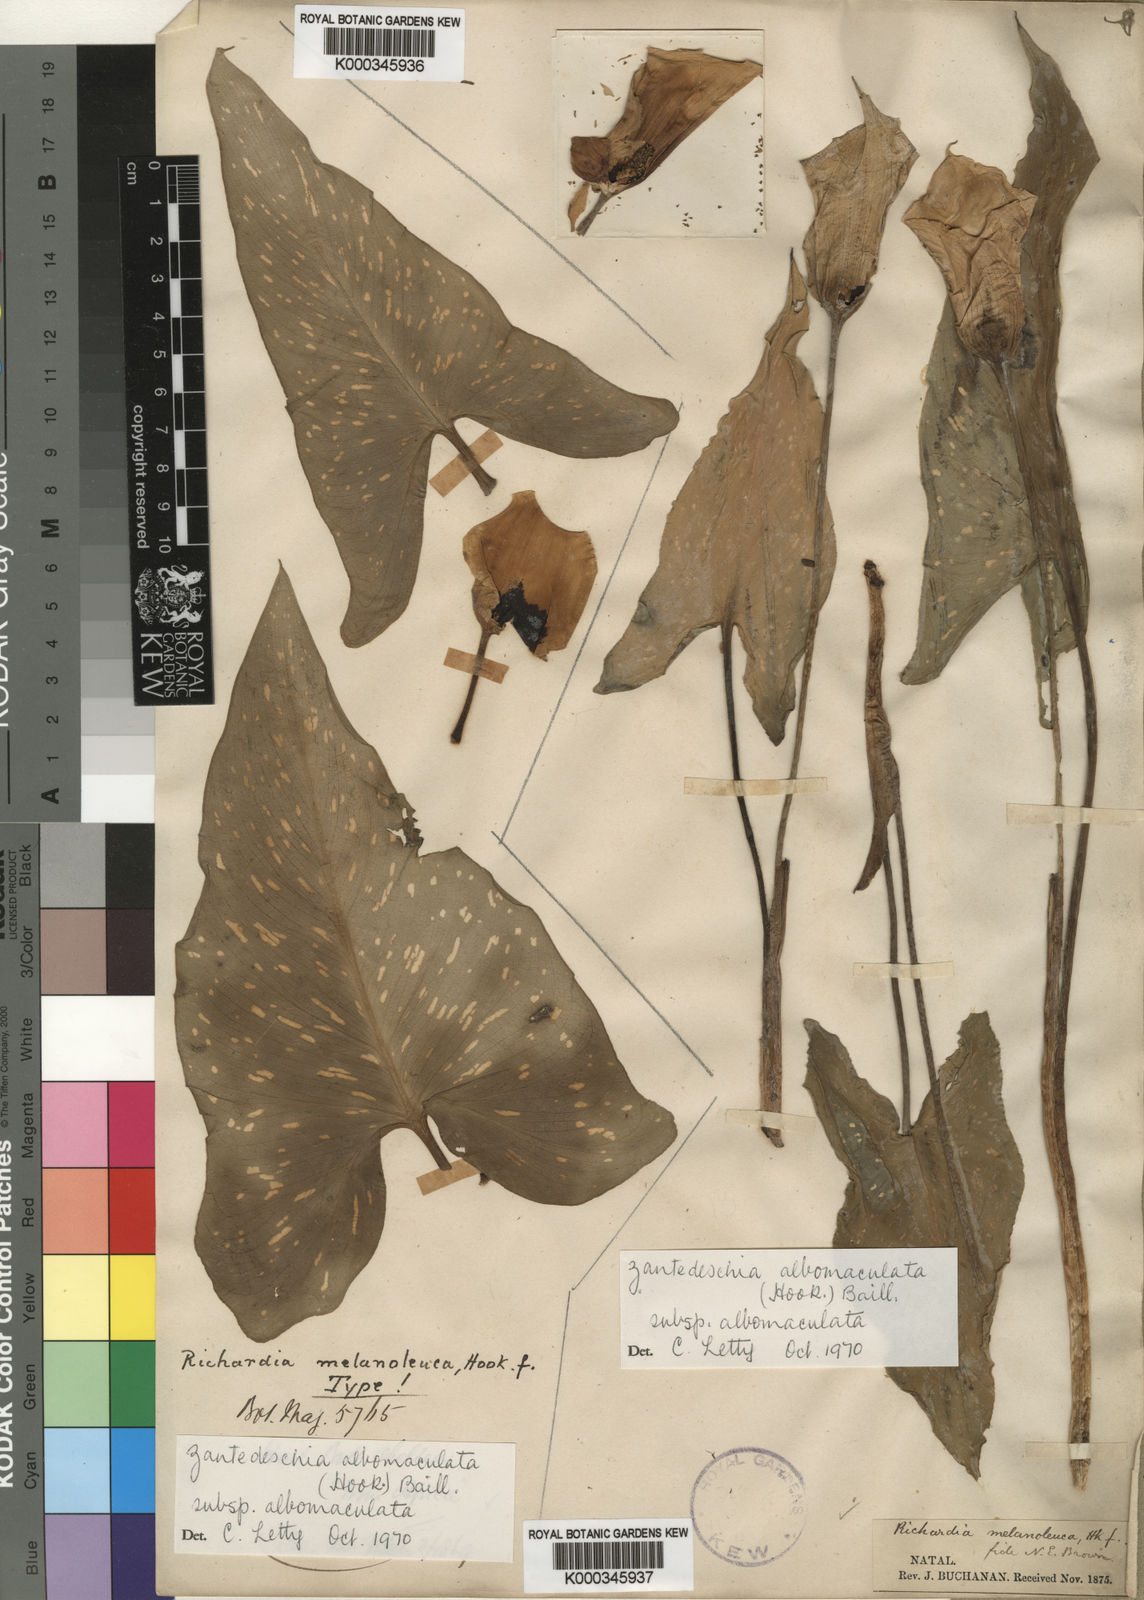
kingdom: Plantae
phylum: Tracheophyta
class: Liliopsida
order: Alismatales
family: Araceae
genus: Zantedeschia
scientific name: Zantedeschia albomaculata
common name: Spotted calla lily
